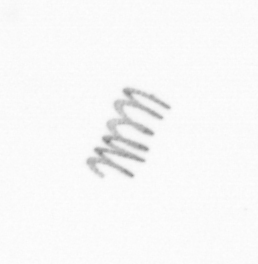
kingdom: Chromista
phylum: Ochrophyta
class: Bacillariophyceae
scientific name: Bacillariophyceae
